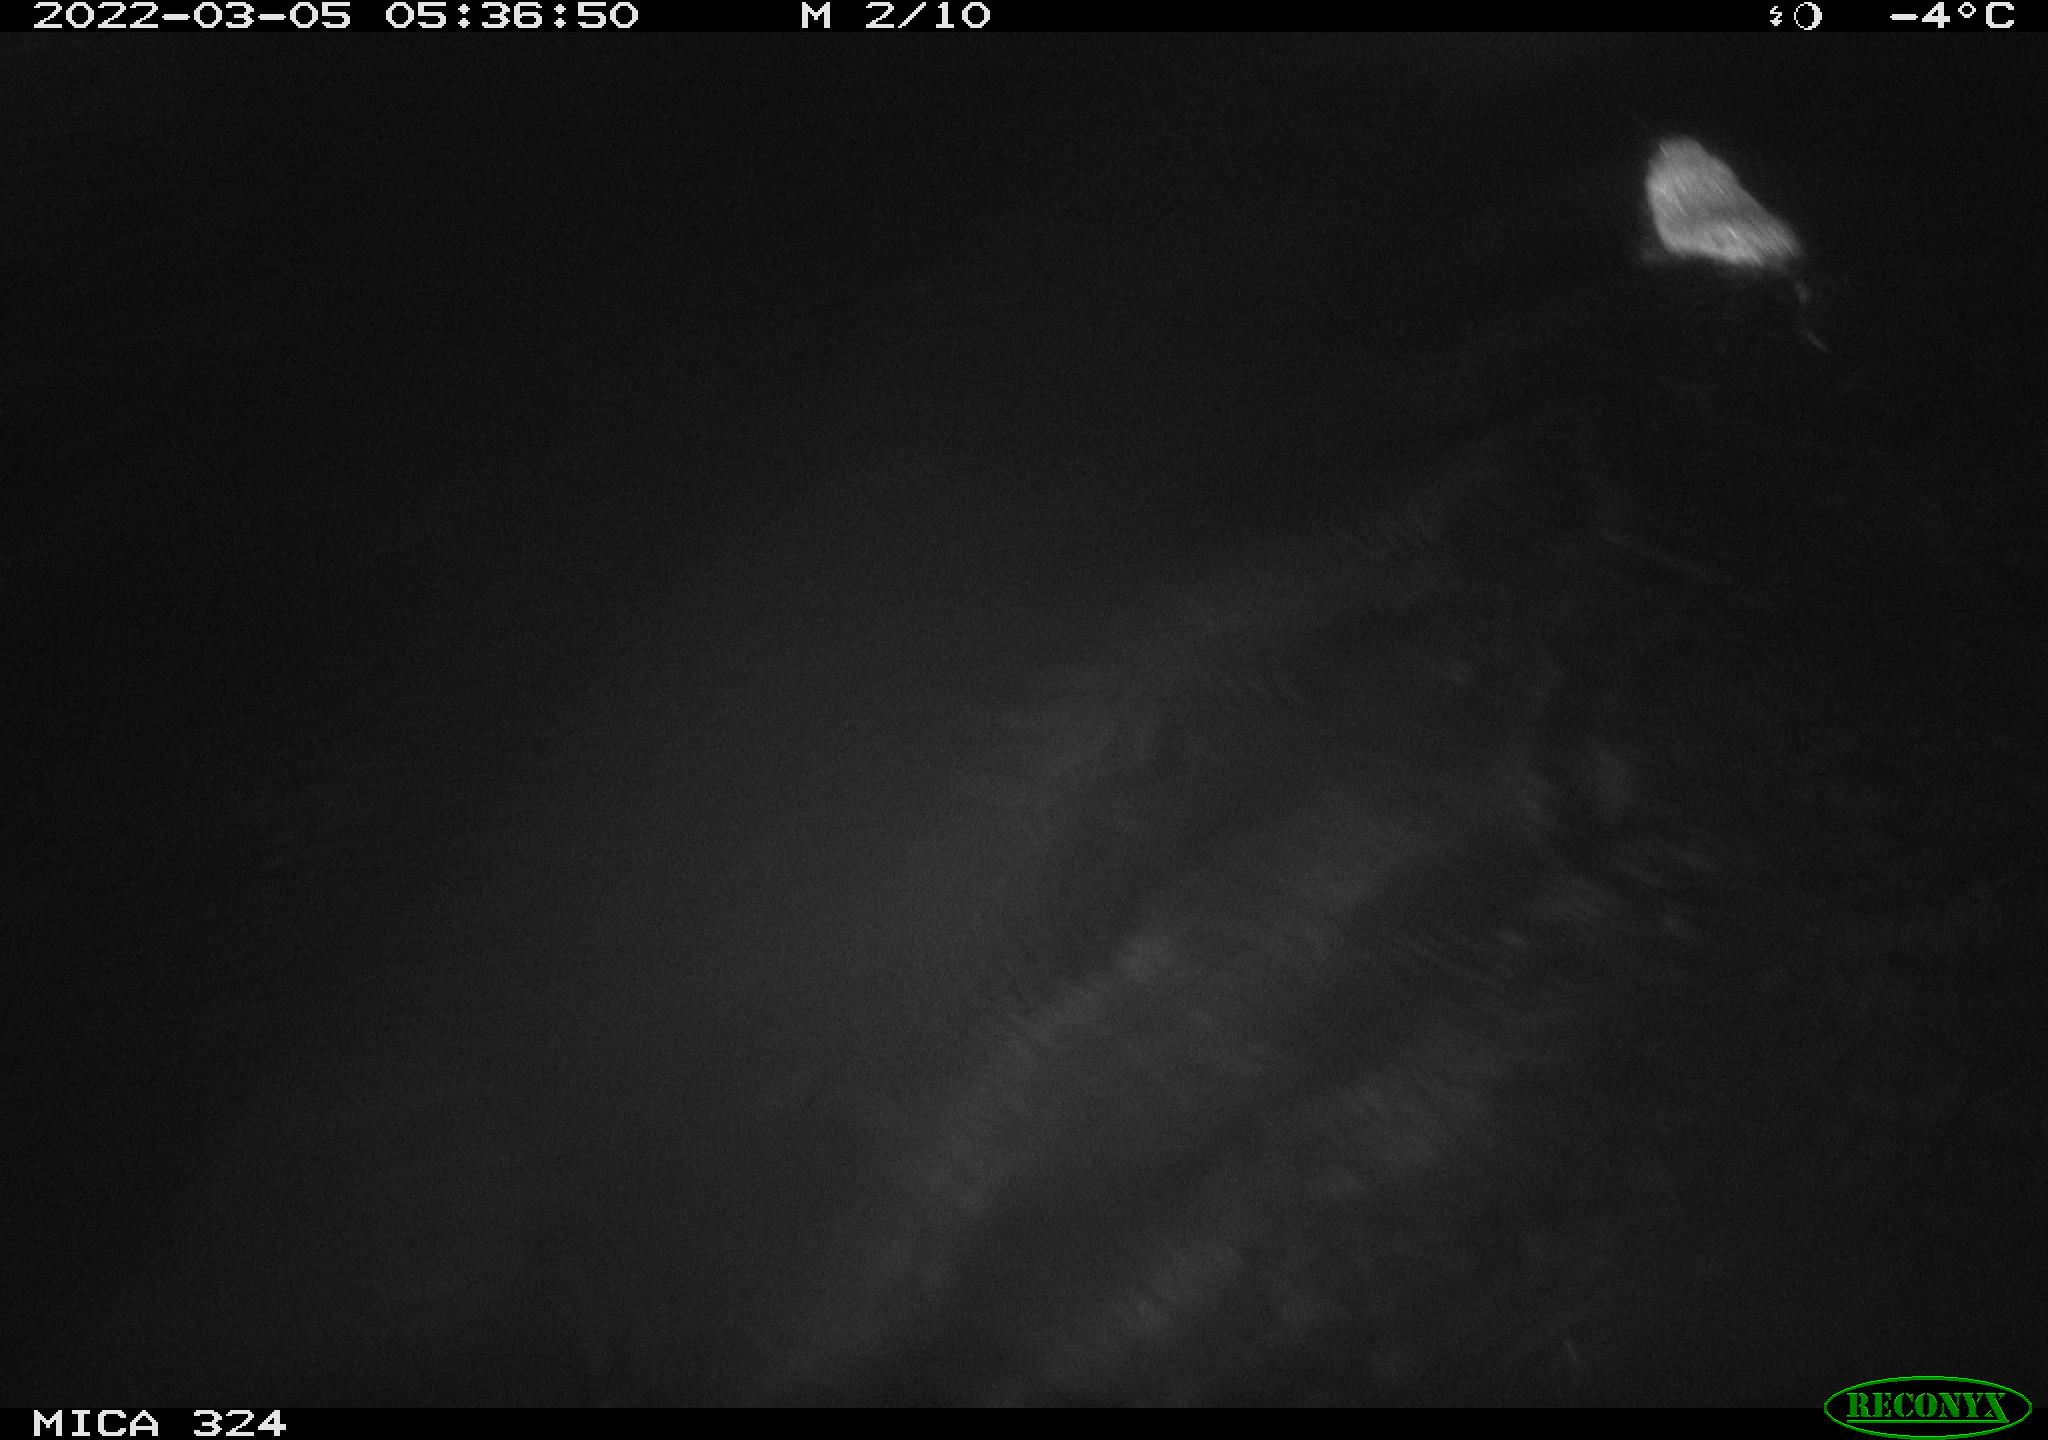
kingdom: Animalia
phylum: Chordata
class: Mammalia
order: Rodentia
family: Cricetidae
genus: Ondatra
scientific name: Ondatra zibethicus
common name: Muskrat
